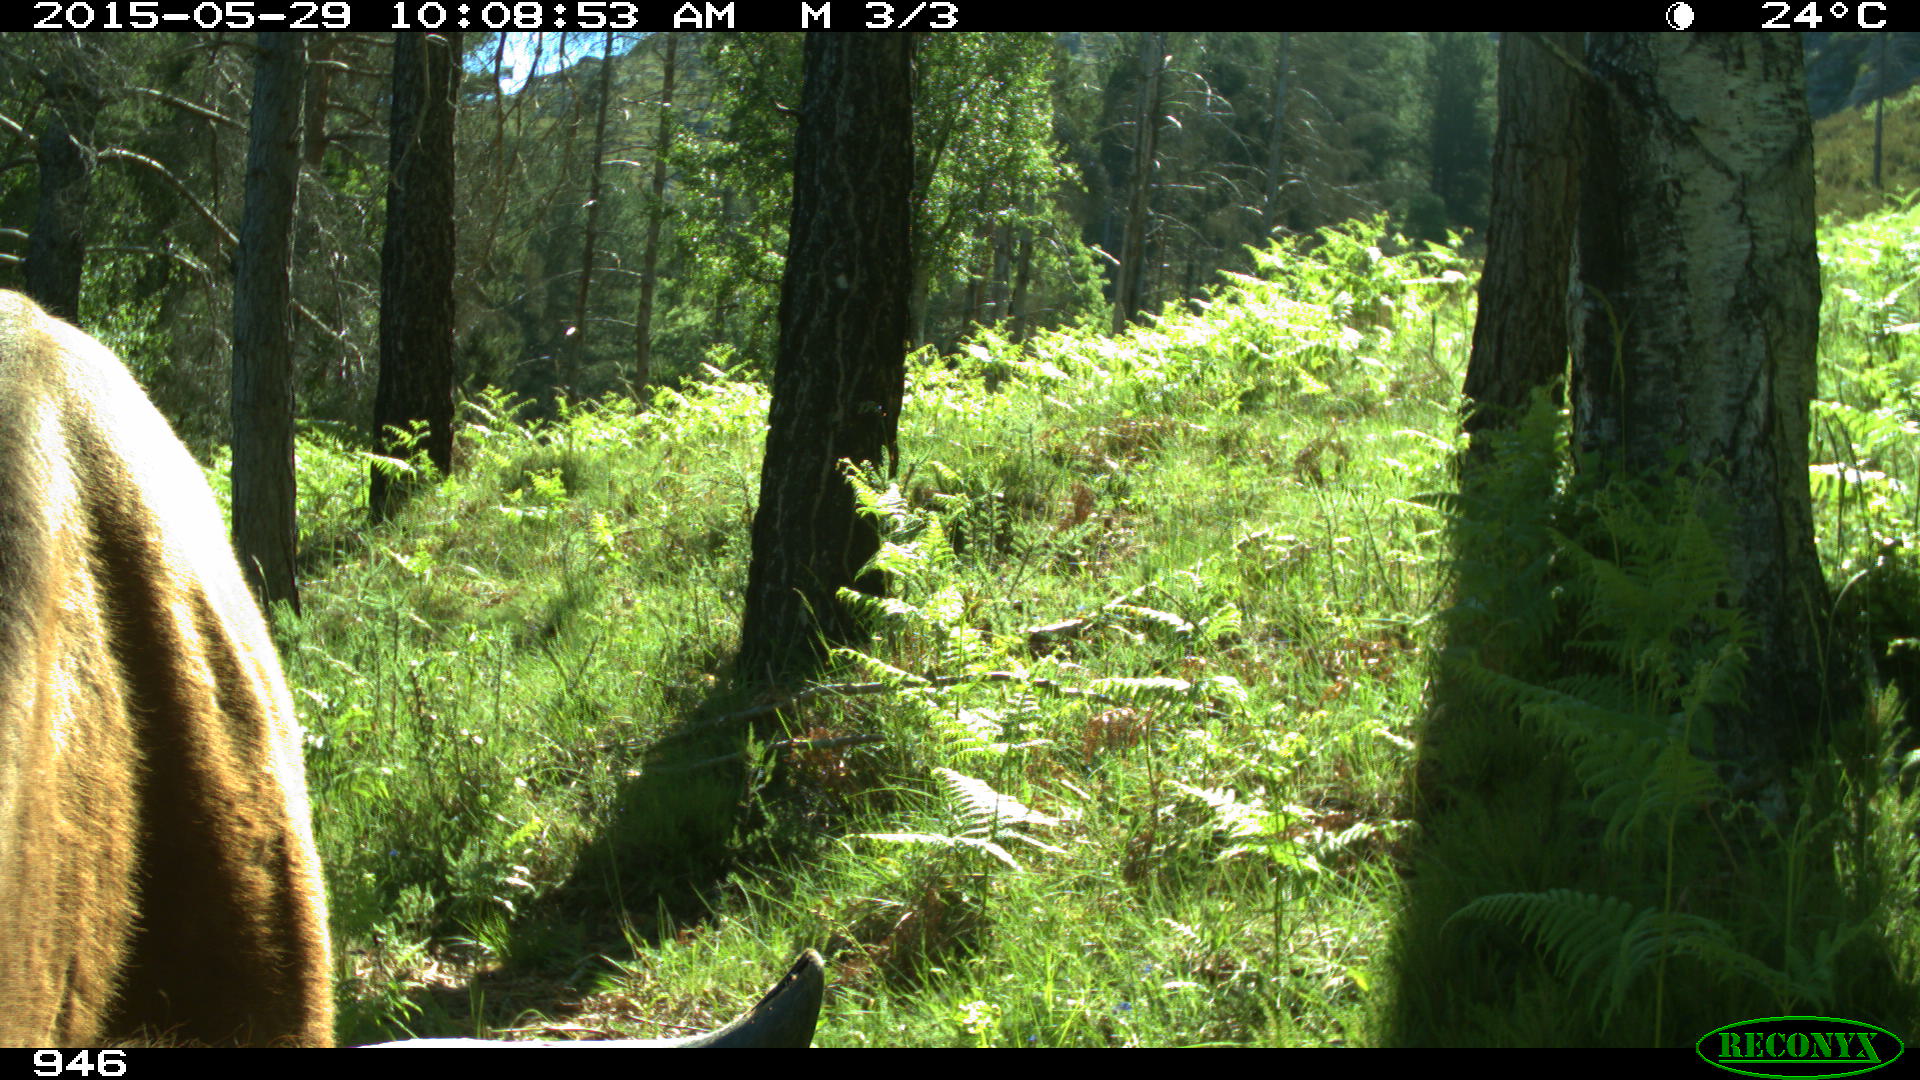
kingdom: Animalia
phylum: Chordata
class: Mammalia
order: Artiodactyla
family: Bovidae
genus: Bos
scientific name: Bos taurus
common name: Domesticated cattle
